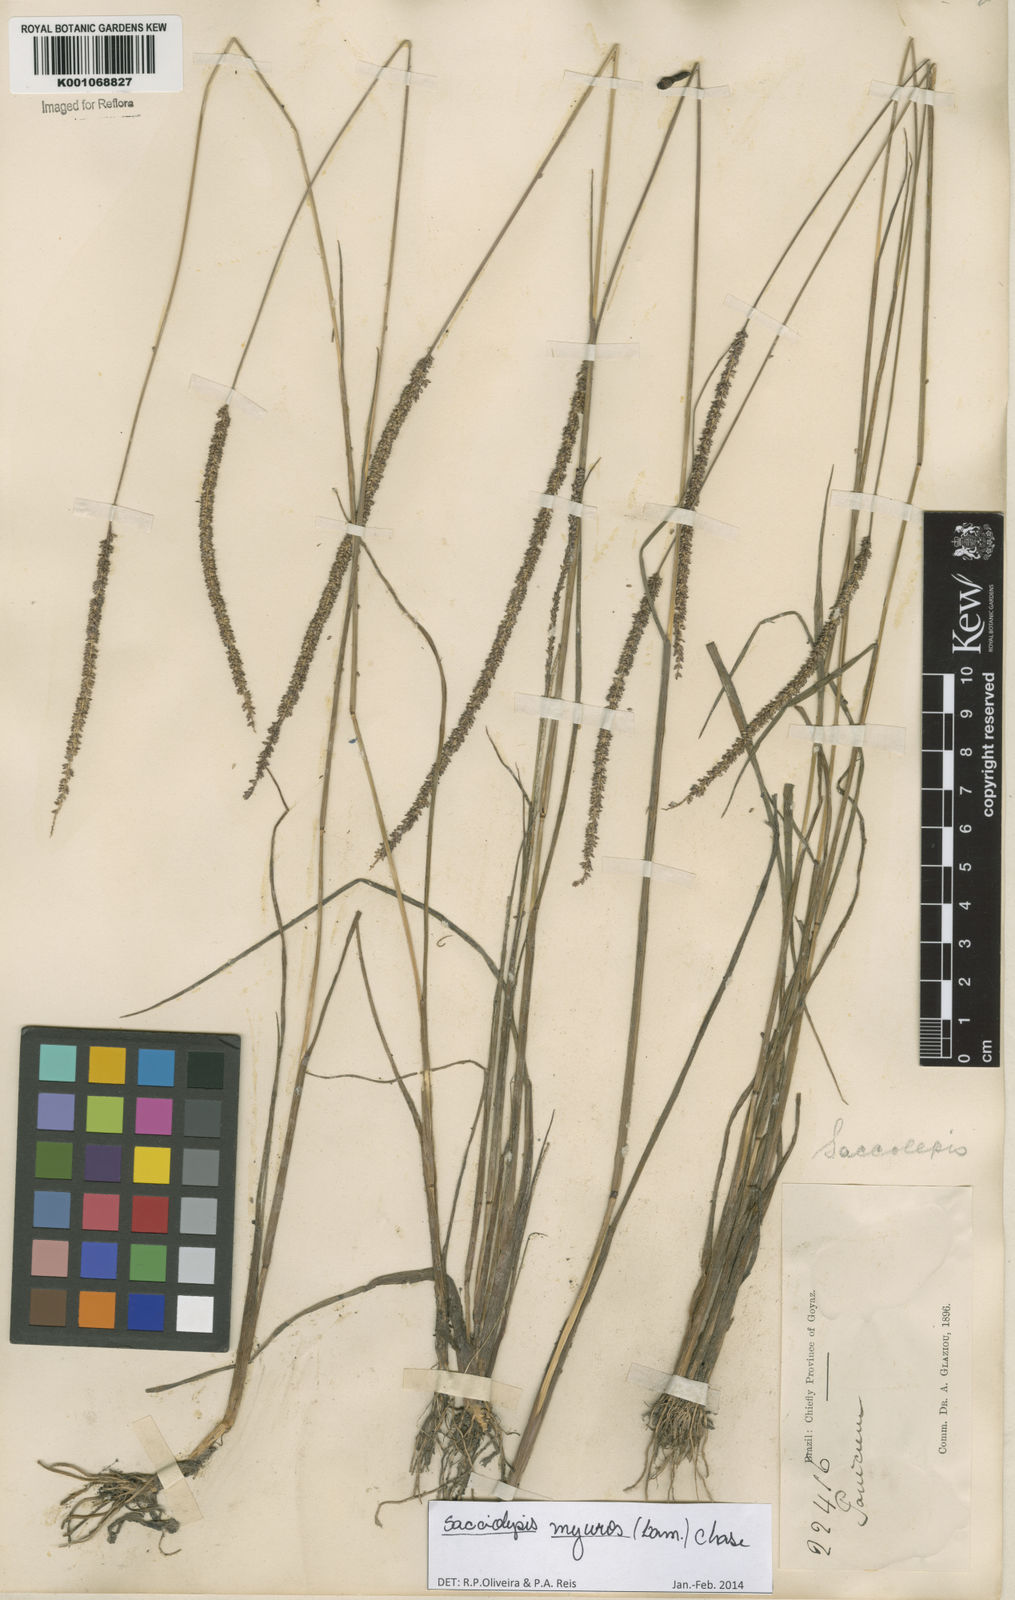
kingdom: Plantae
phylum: Tracheophyta
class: Liliopsida
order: Poales
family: Poaceae
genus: Sacciolepis
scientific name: Sacciolepis myuros
